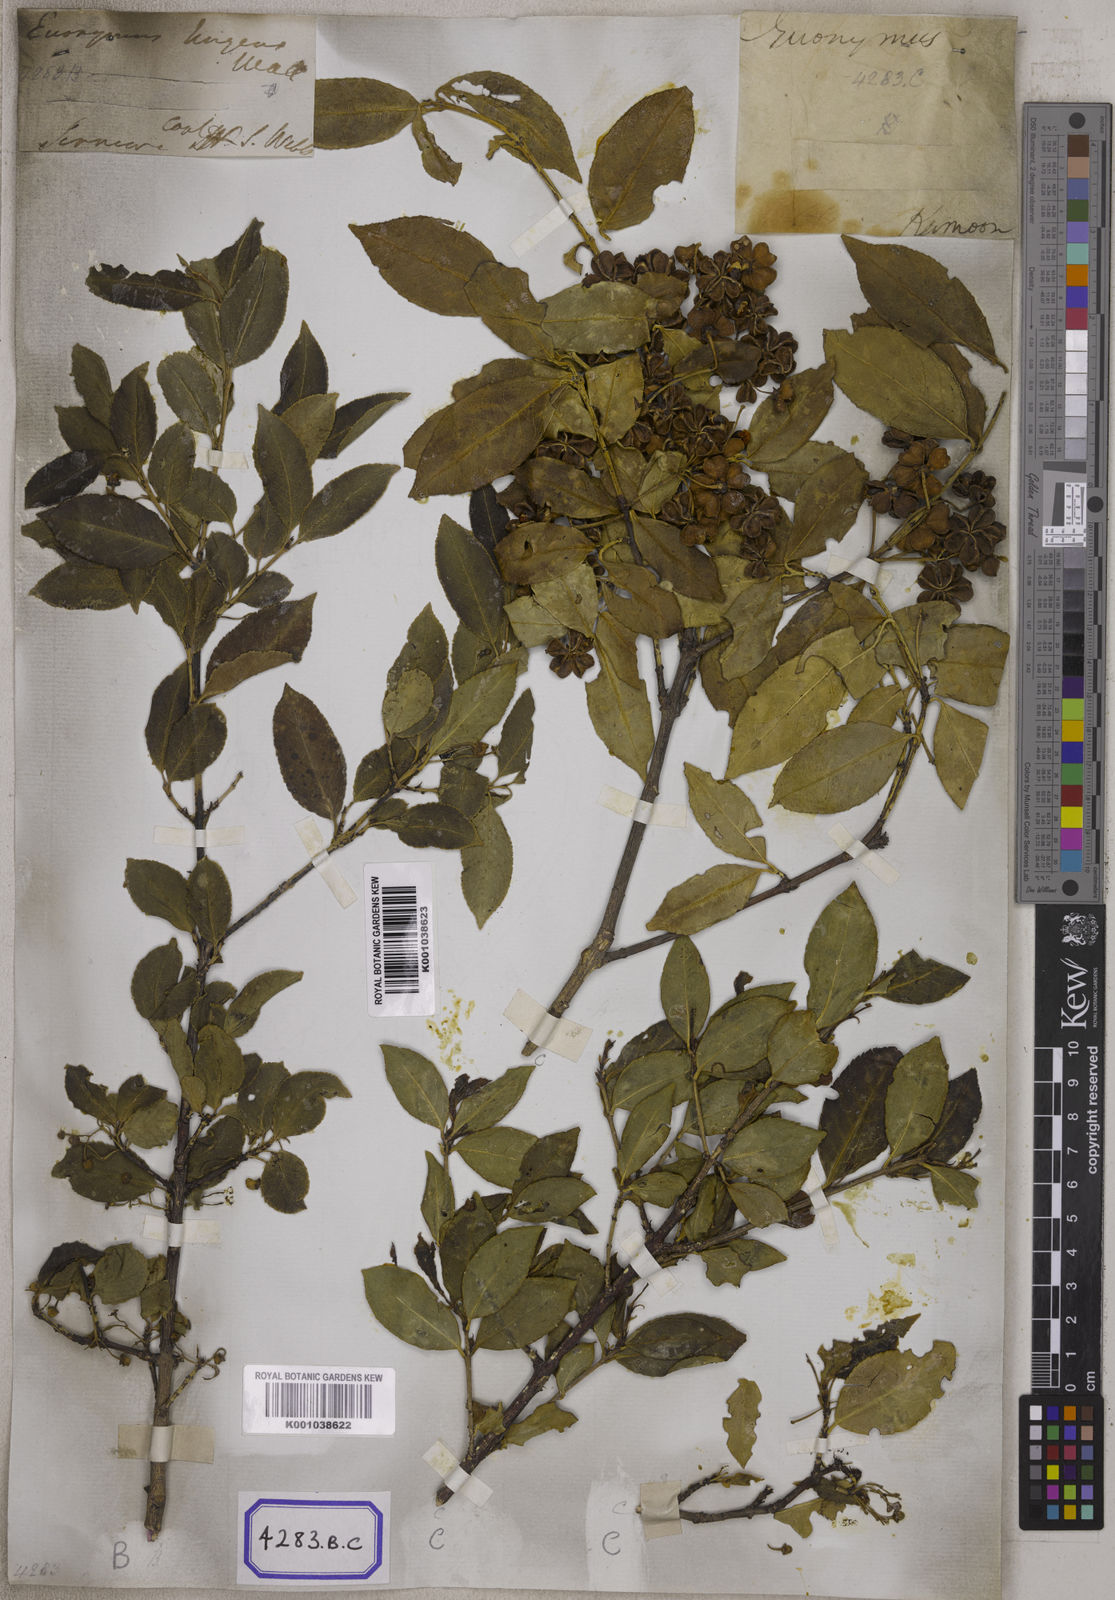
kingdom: Plantae
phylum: Tracheophyta
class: Magnoliopsida
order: Celastrales
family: Celastraceae
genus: Euonymus
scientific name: Euonymus tingens
